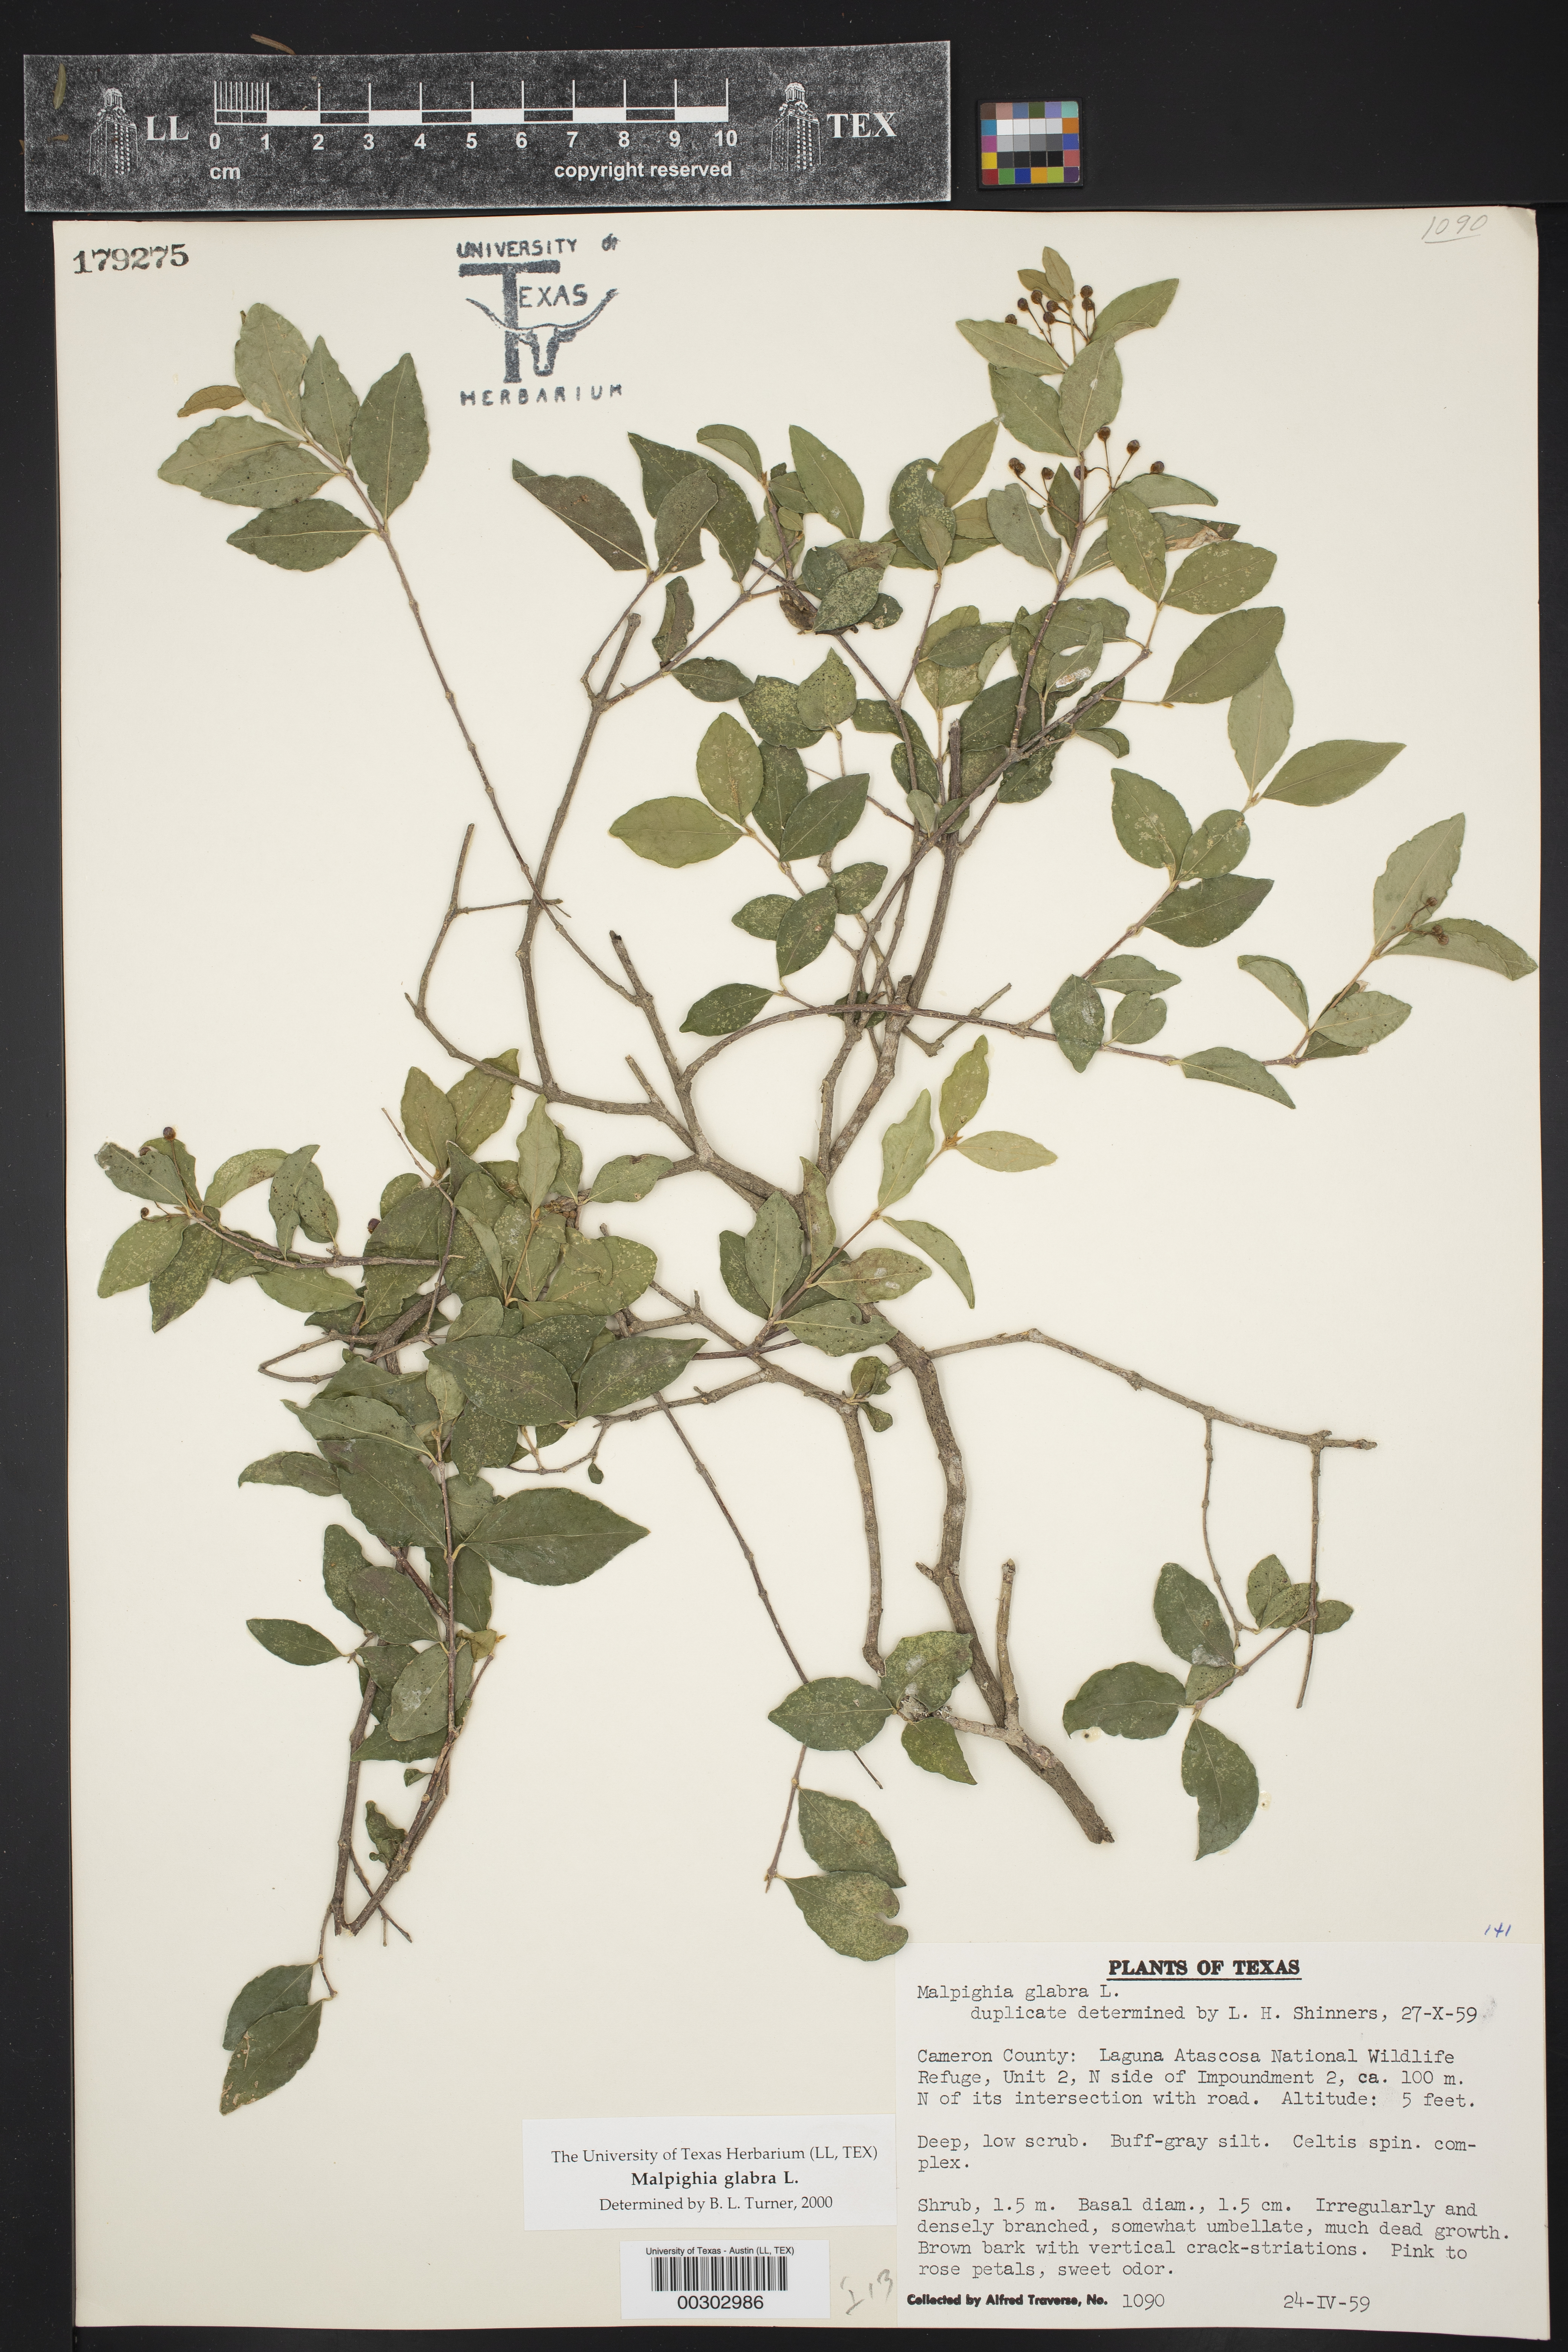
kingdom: Plantae
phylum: Tracheophyta
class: Magnoliopsida
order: Malpighiales
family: Malpighiaceae
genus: Malpighia
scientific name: Malpighia glabra
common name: Barbados cherry
